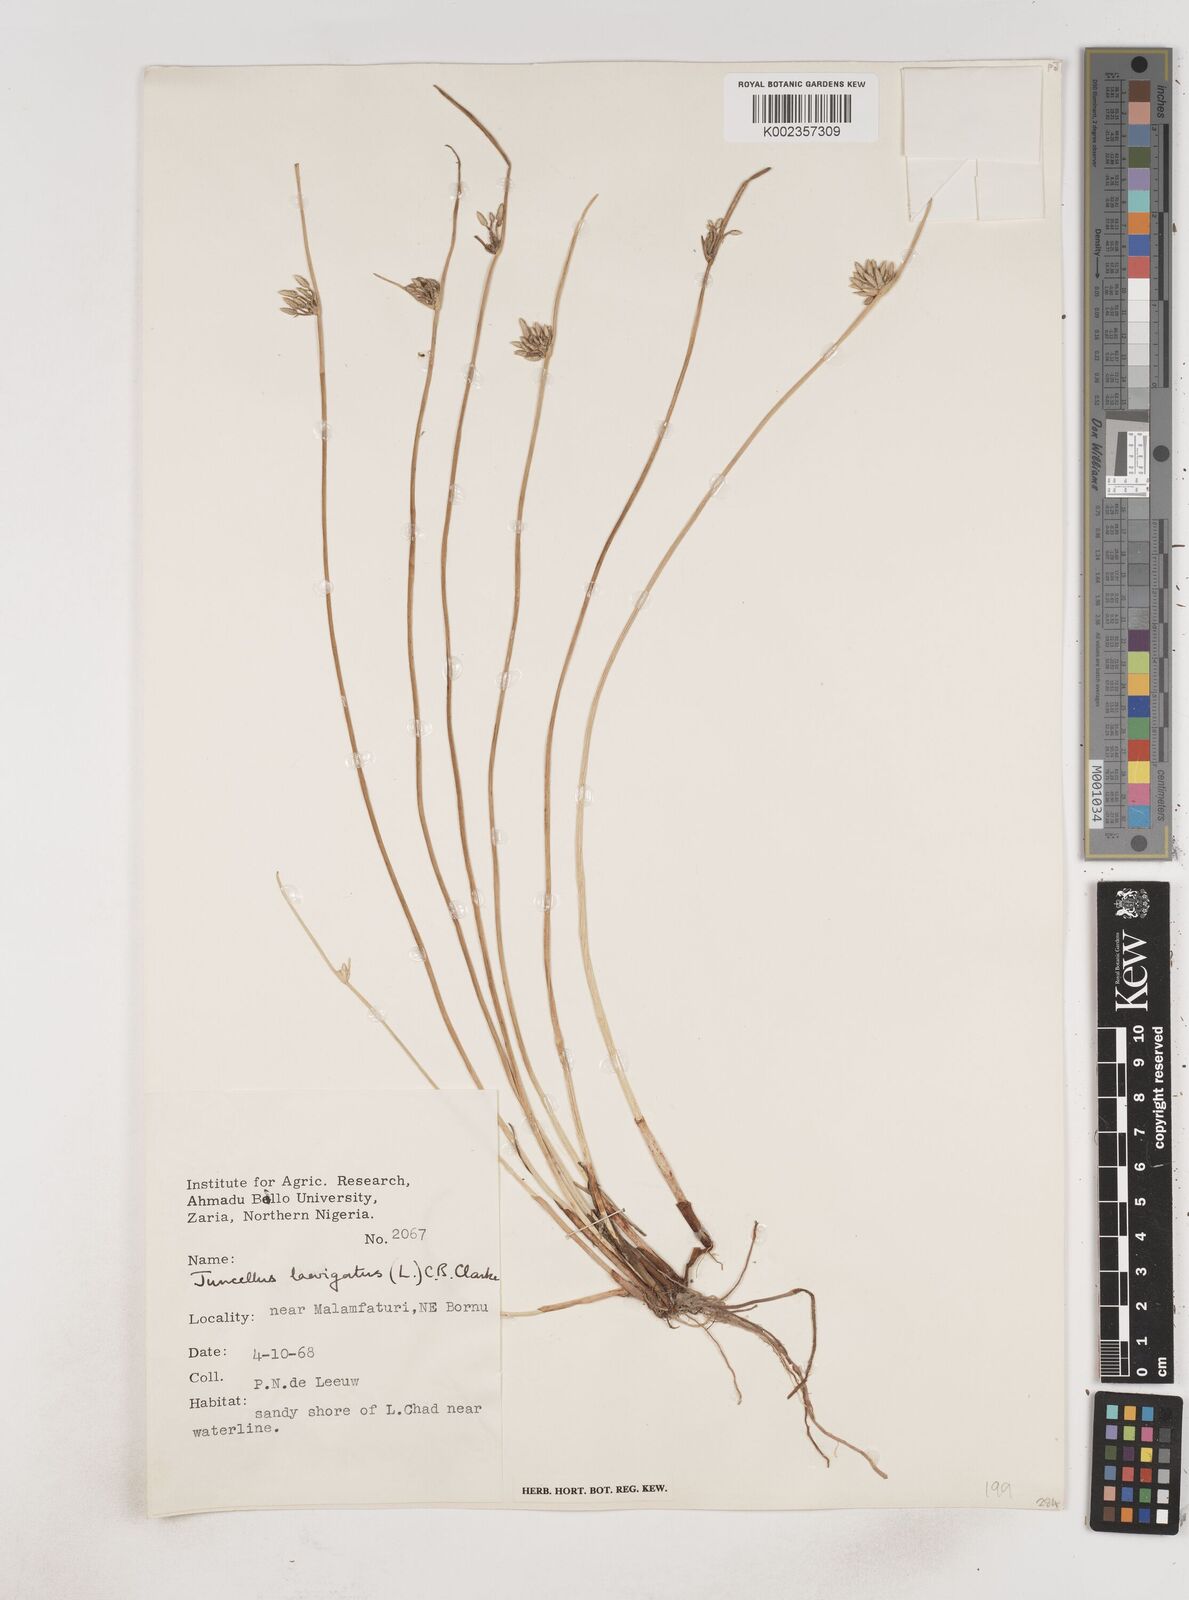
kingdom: Plantae
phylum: Tracheophyta
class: Liliopsida
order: Poales
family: Cyperaceae
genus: Cyperus
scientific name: Cyperus laevigatus
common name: Smooth flat sedge
